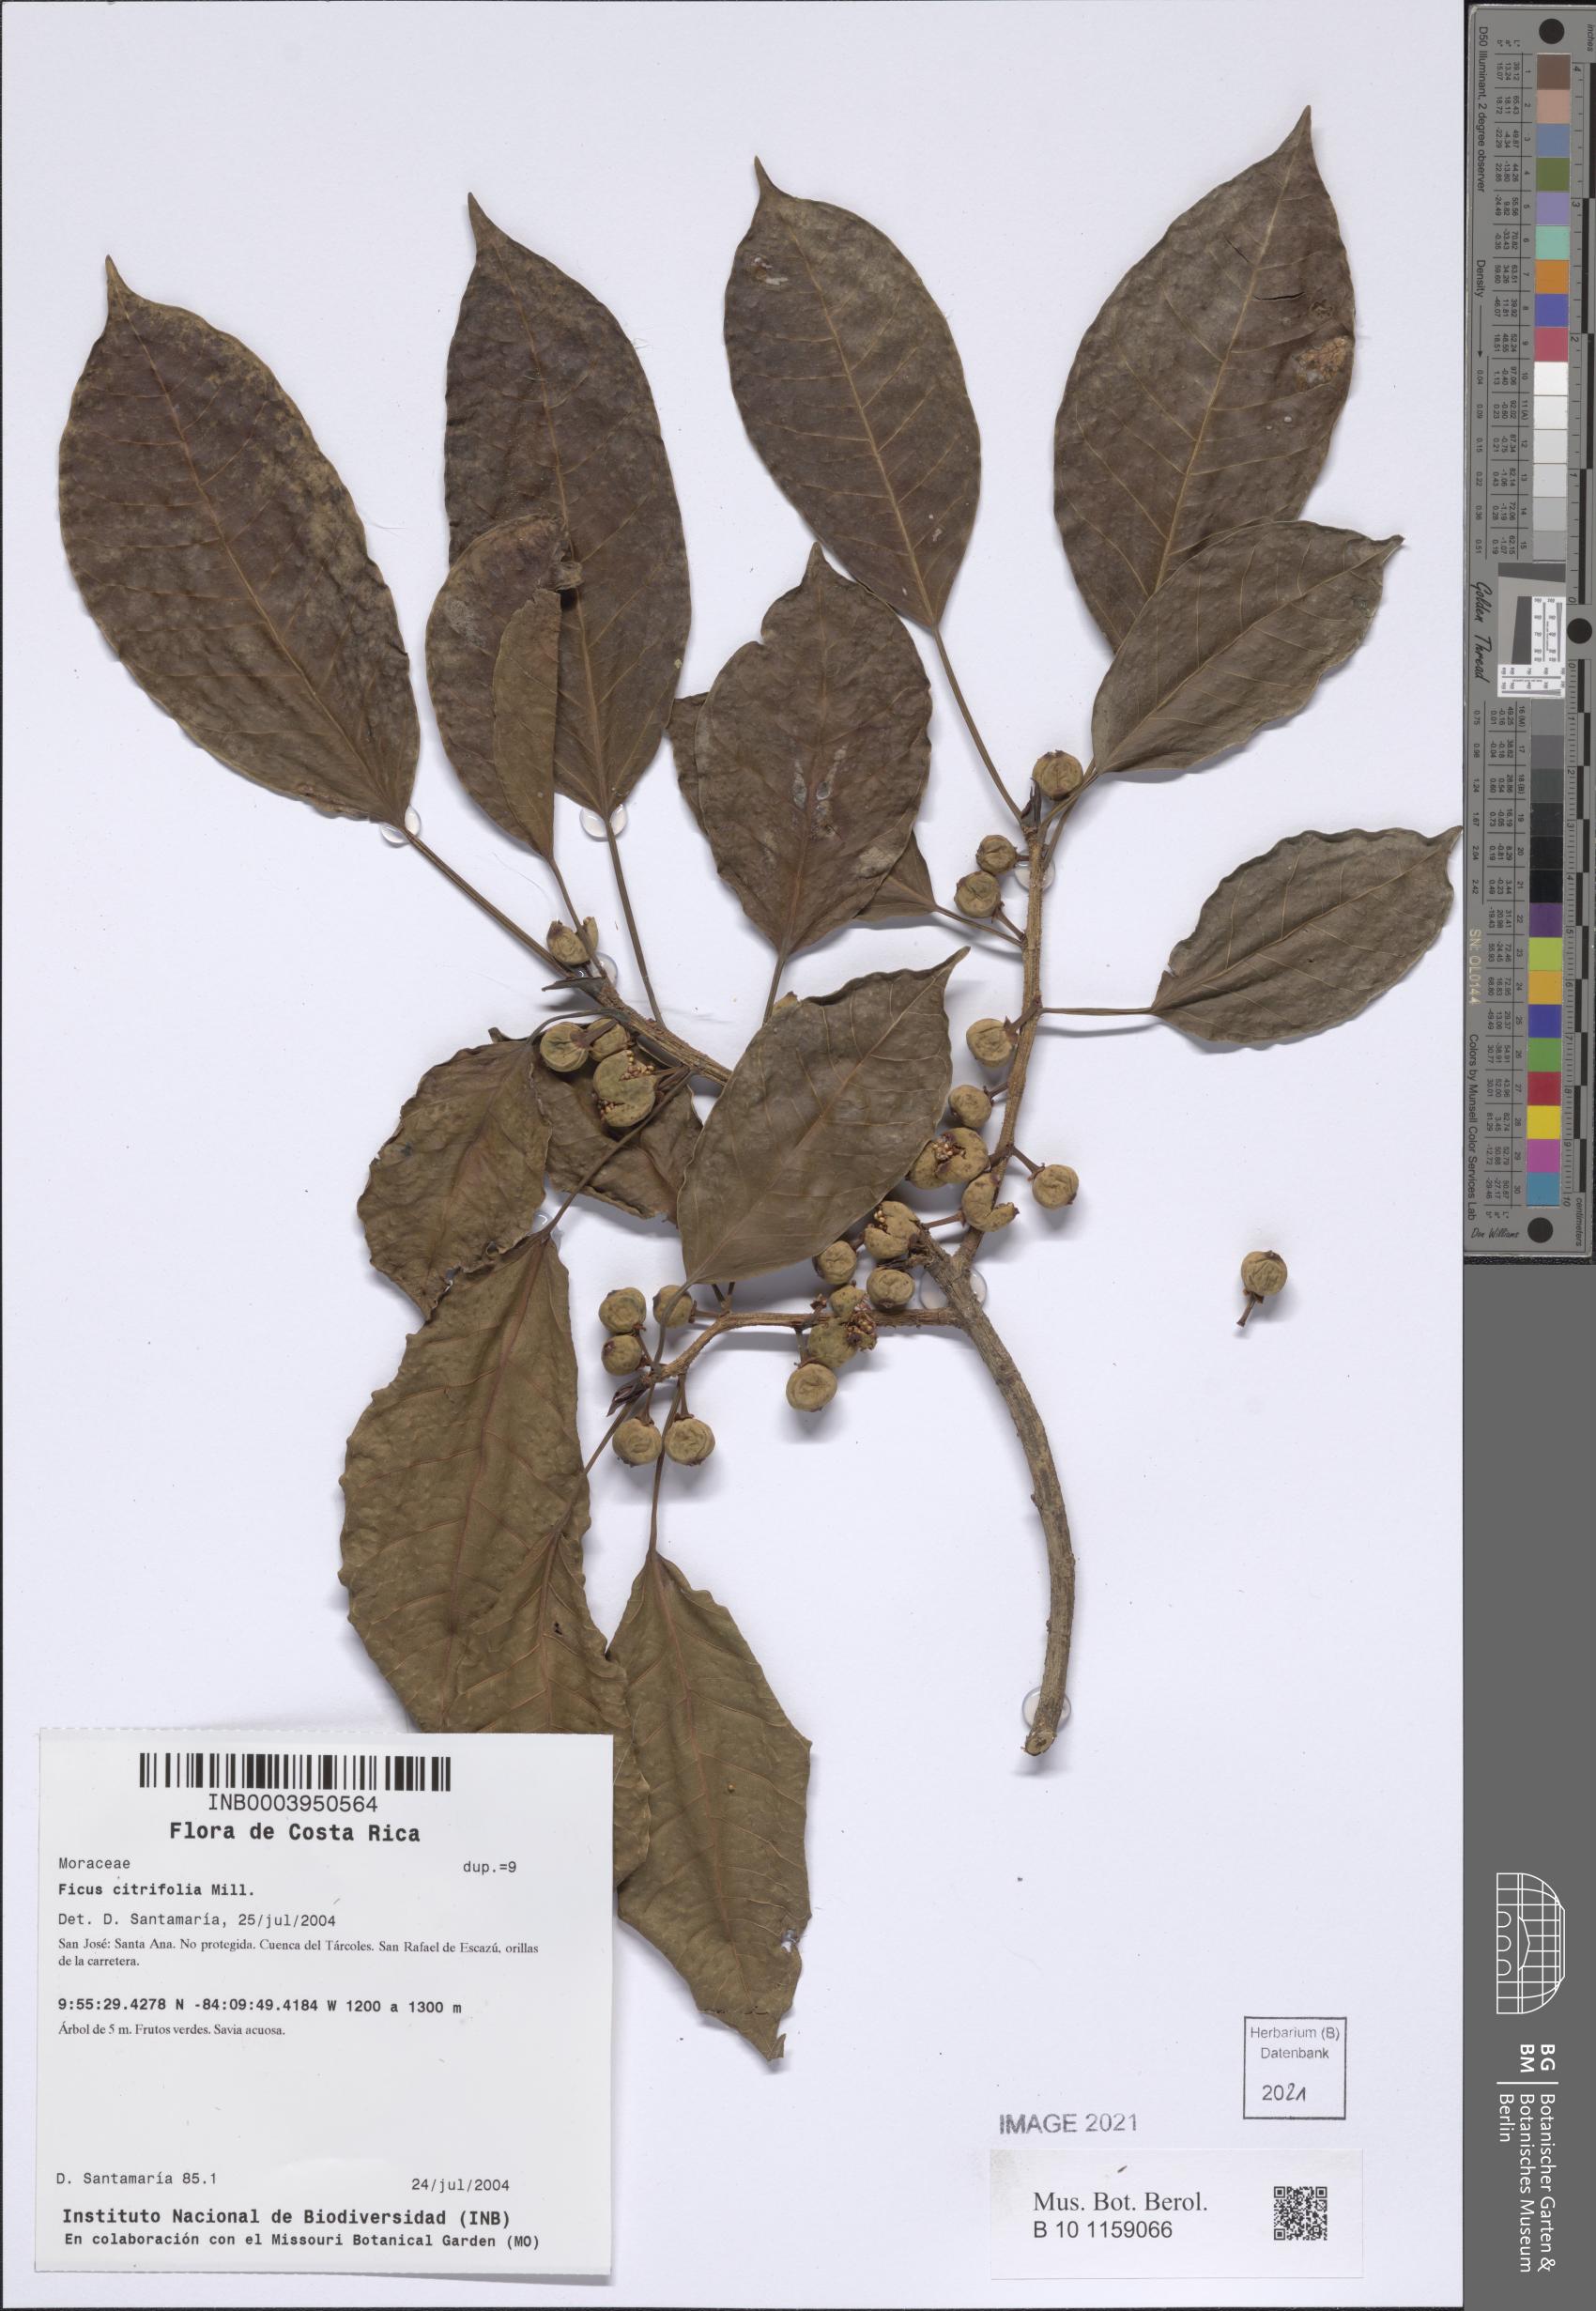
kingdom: Plantae
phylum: Tracheophyta
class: Magnoliopsida
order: Rosales
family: Moraceae
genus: Ficus
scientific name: Ficus citrifolia
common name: Strangler fig
